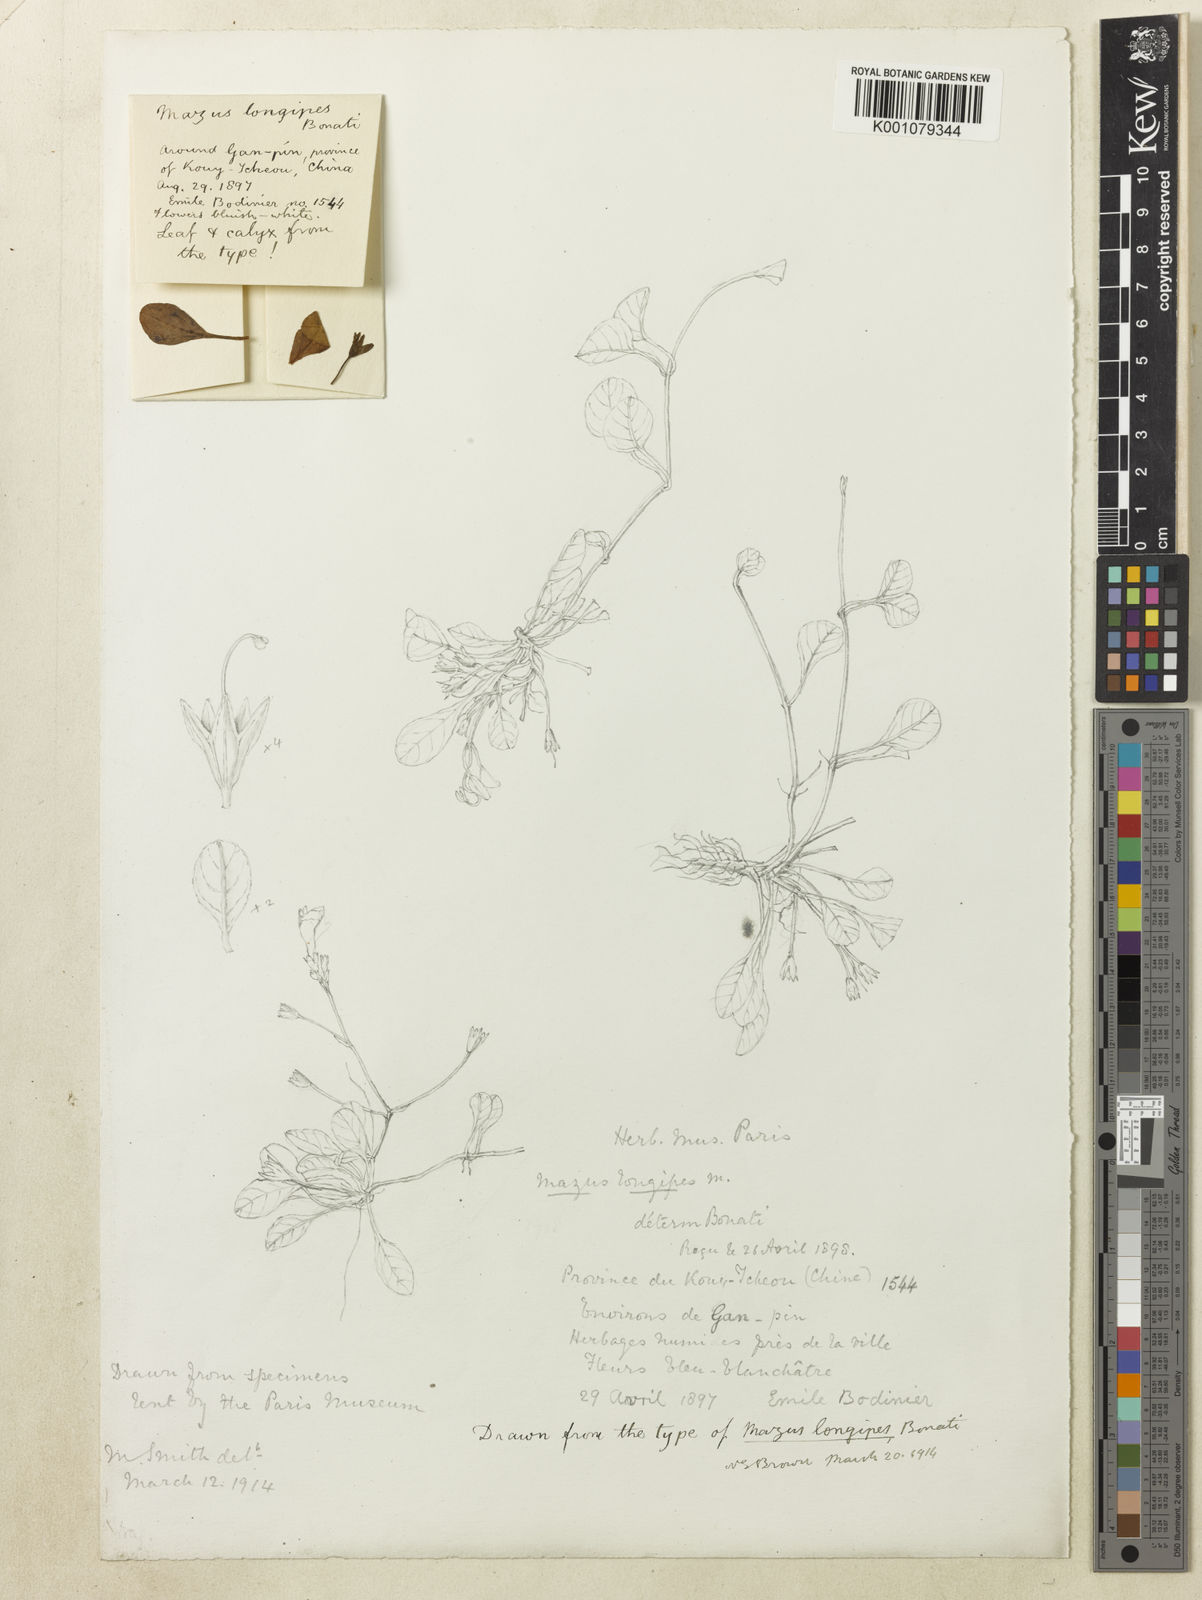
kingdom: Plantae
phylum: Tracheophyta
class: Magnoliopsida
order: Lamiales
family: Mazaceae
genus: Mazus
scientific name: Mazus longipes
